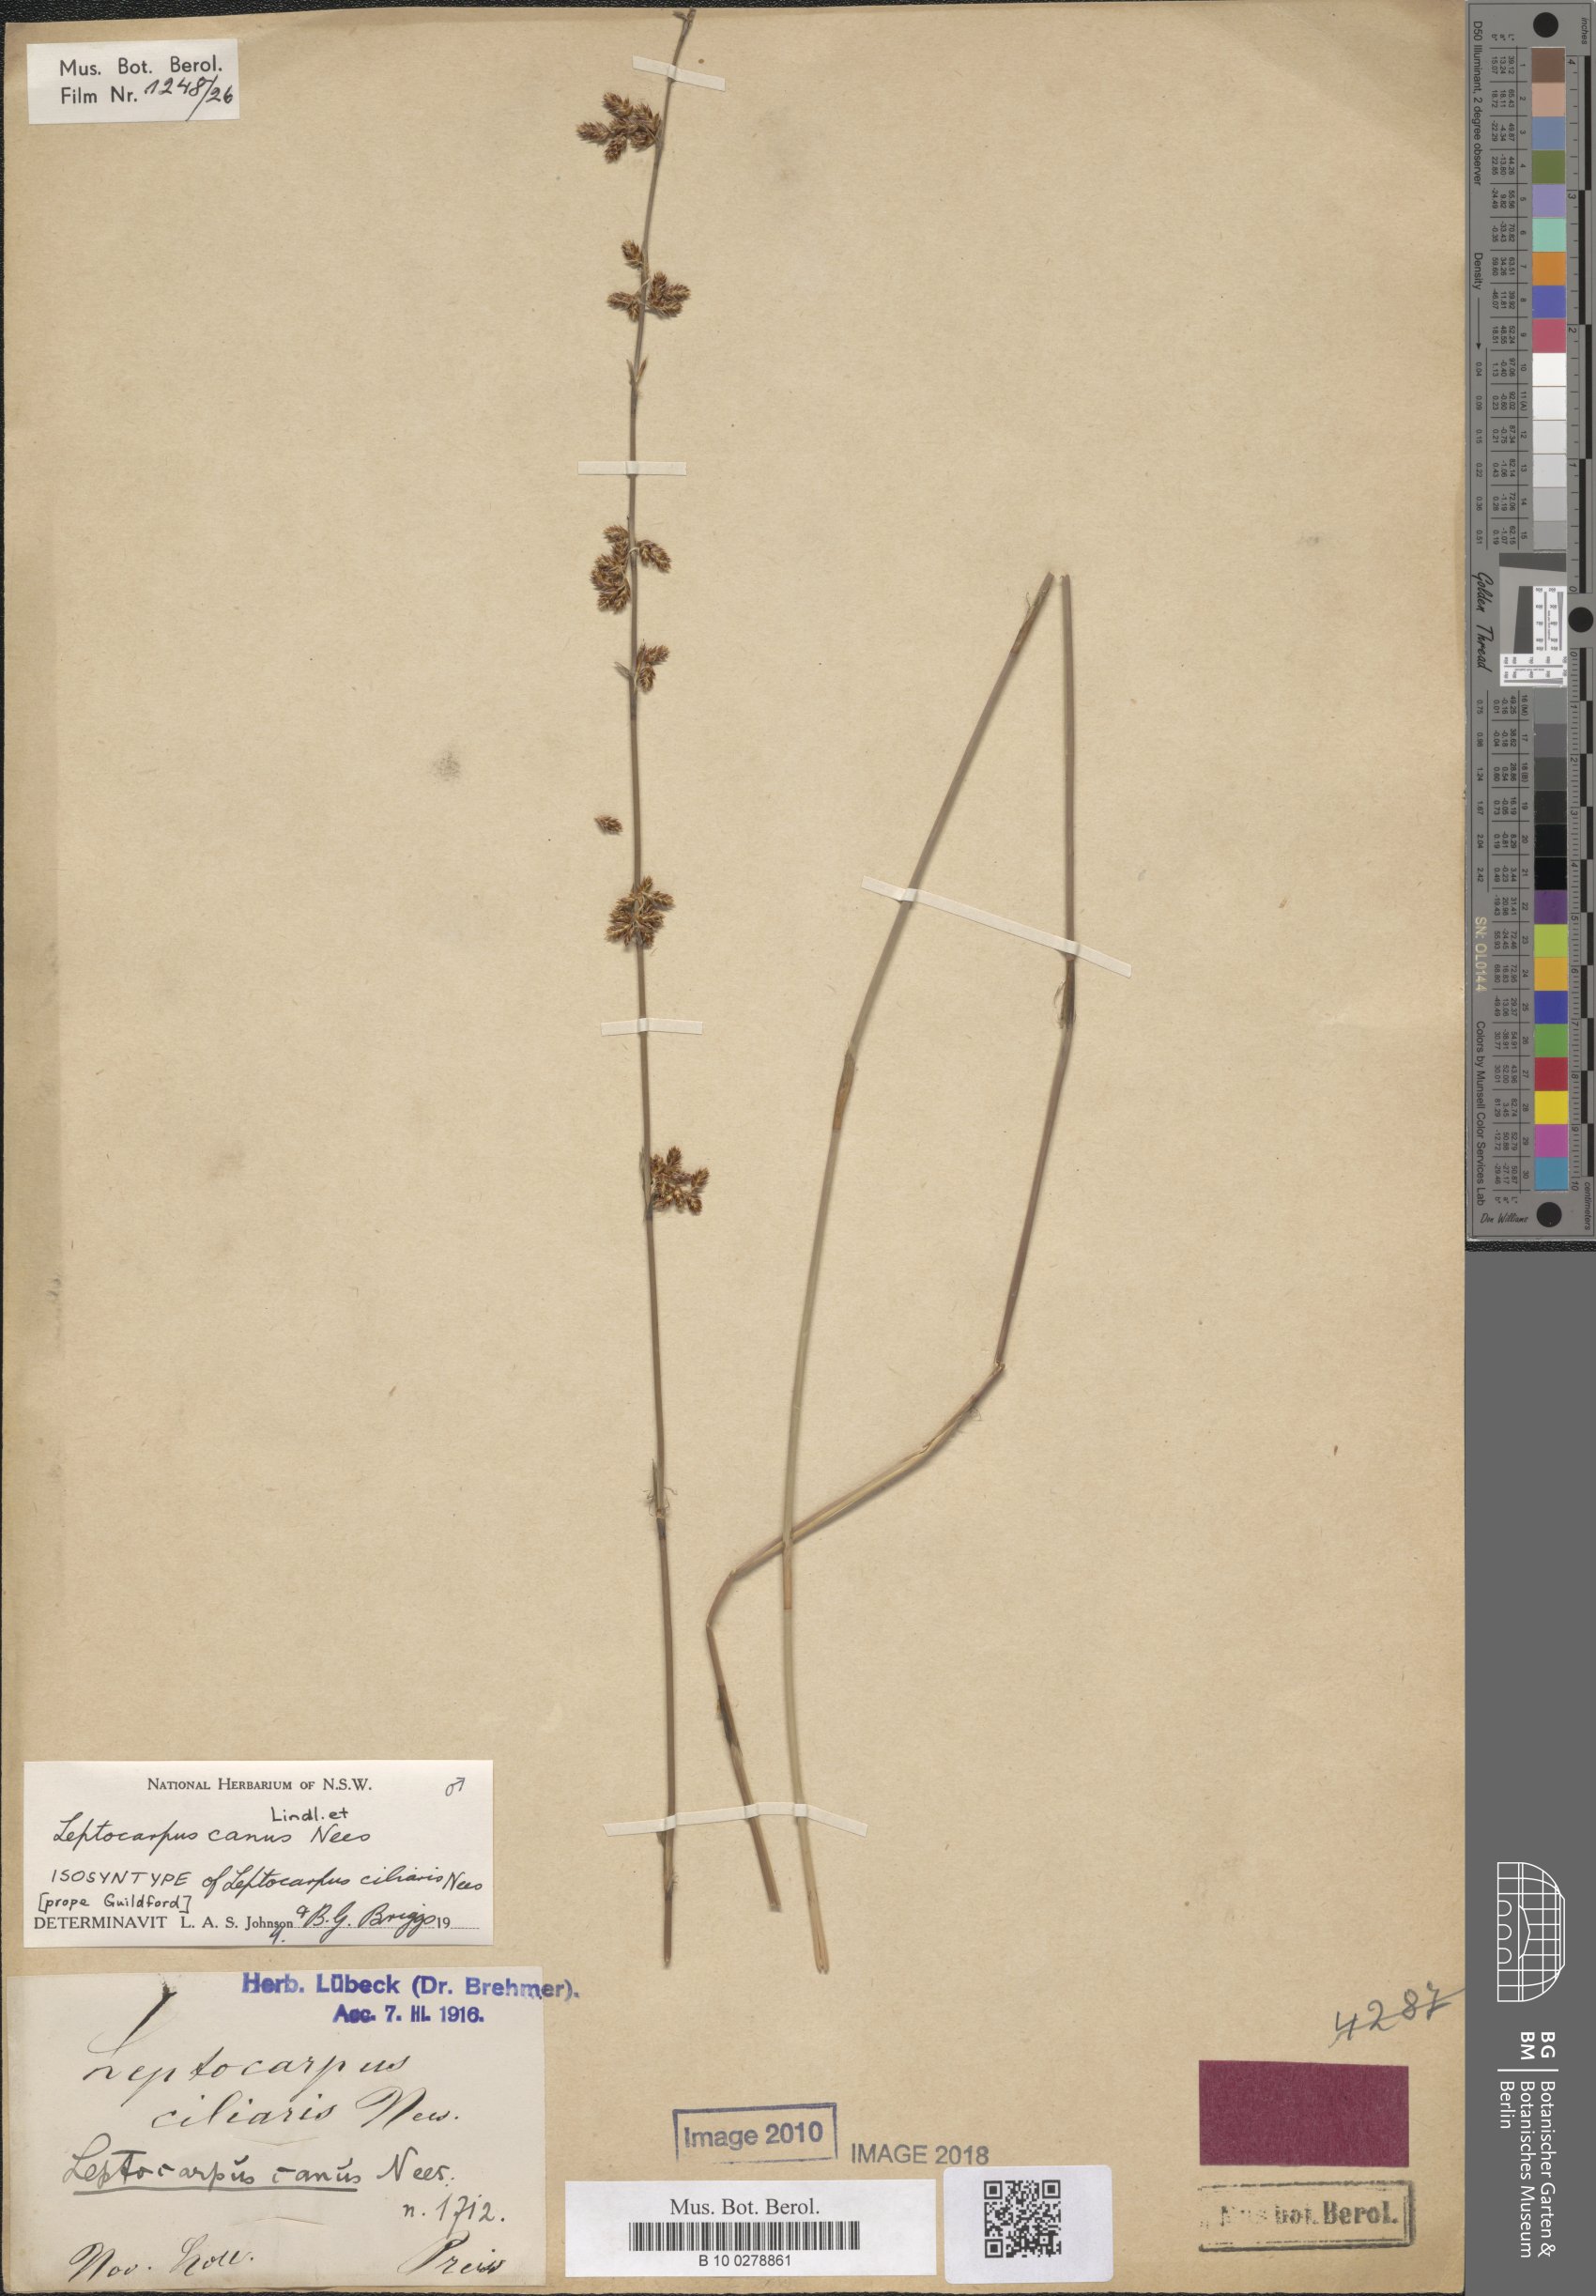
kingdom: Plantae
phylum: Tracheophyta
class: Liliopsida
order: Poales
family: Restionaceae
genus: Leptocarpus
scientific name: Leptocarpus canus
